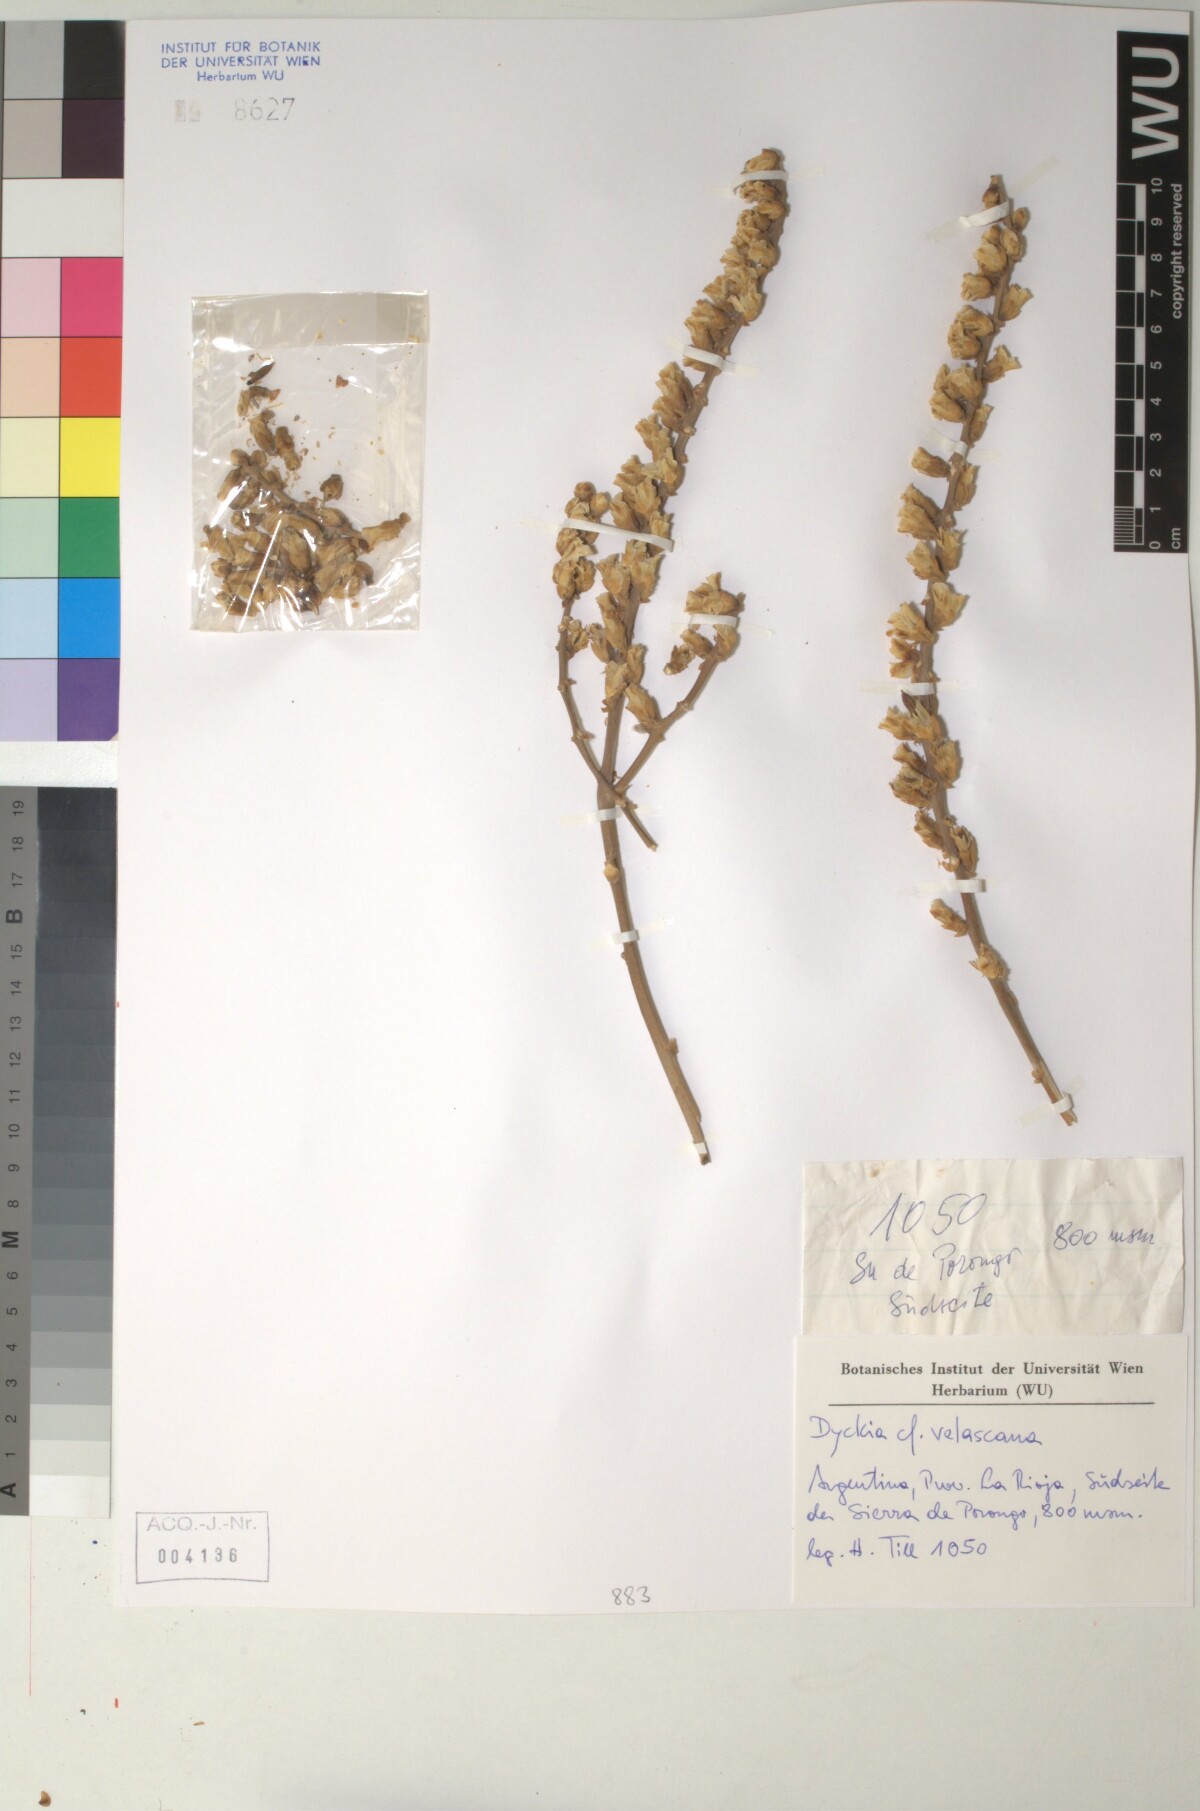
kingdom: Plantae
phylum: Tracheophyta
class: Liliopsida
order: Poales
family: Bromeliaceae
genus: Dyckia
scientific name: Dyckia velascana
